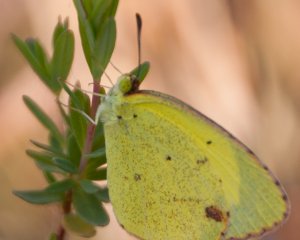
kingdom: Animalia
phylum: Arthropoda
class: Insecta
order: Lepidoptera
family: Pieridae
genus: Pyrisitia
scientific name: Pyrisitia lisa
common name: Little Yellow
